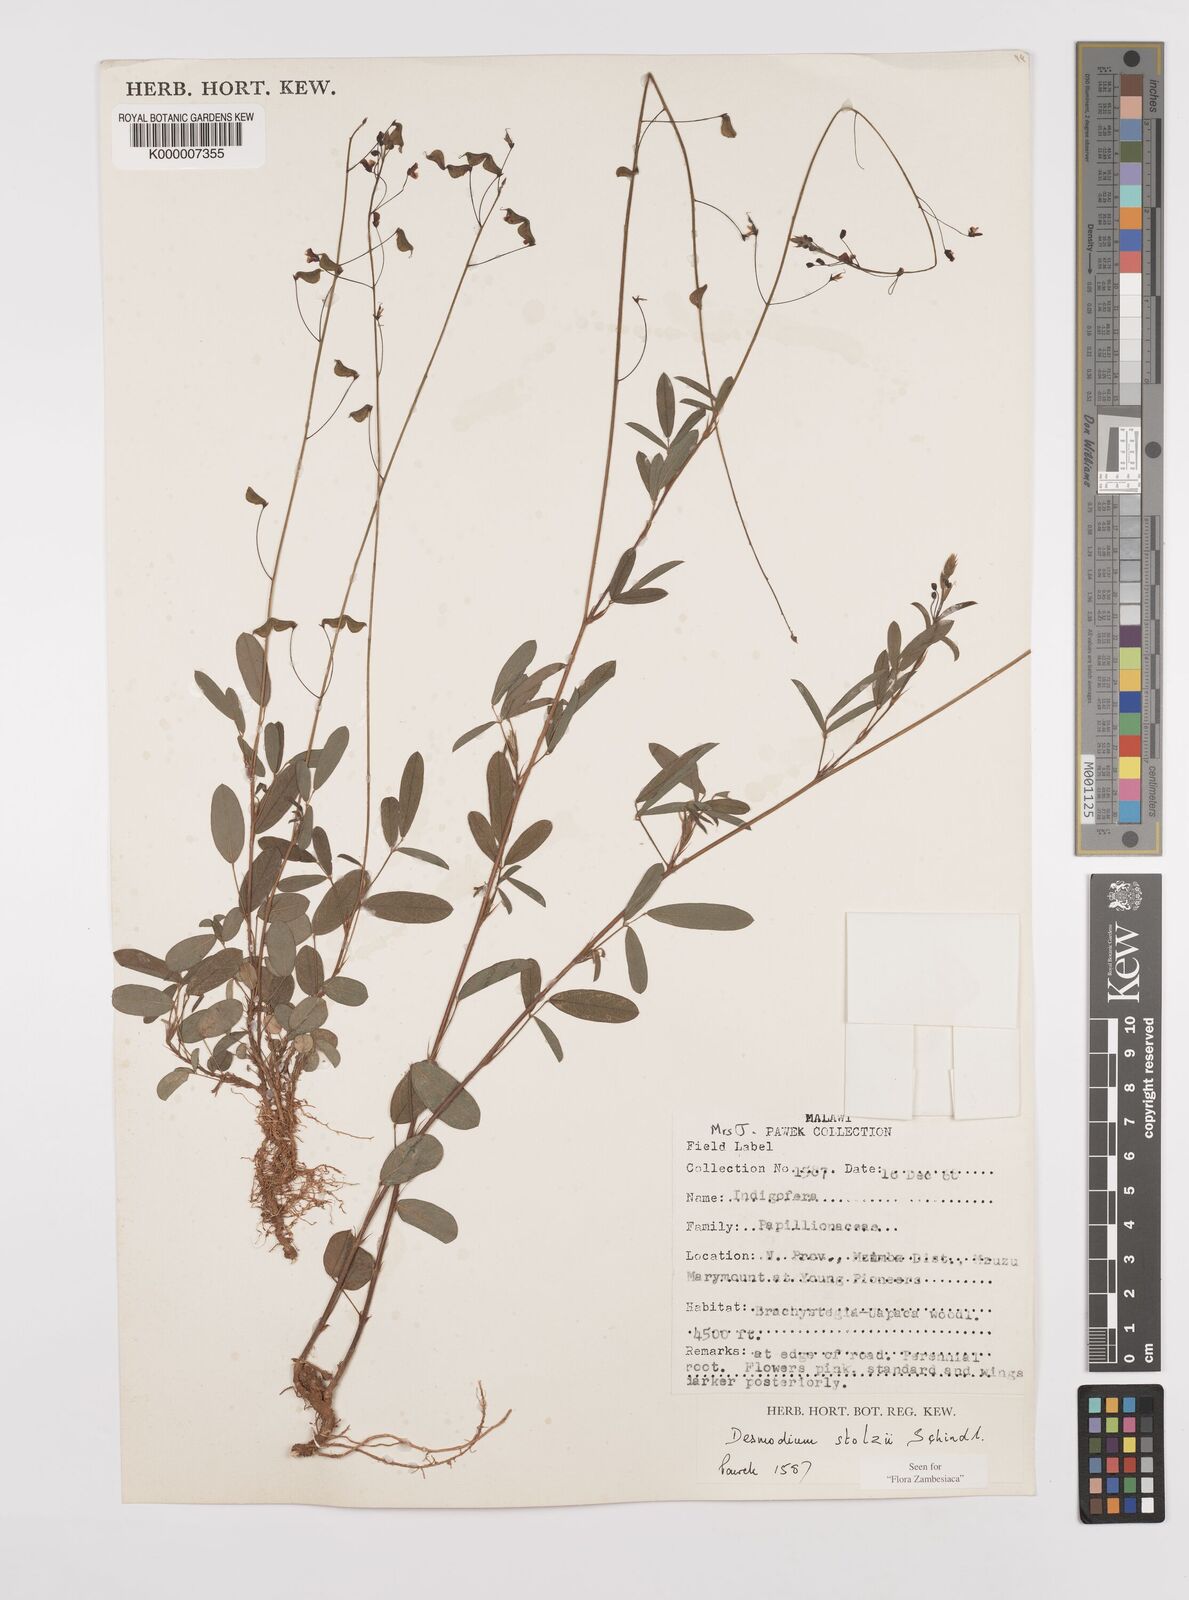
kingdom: Plantae
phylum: Tracheophyta
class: Magnoliopsida
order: Fabales
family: Fabaceae
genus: Grona
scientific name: Grona stolzii
